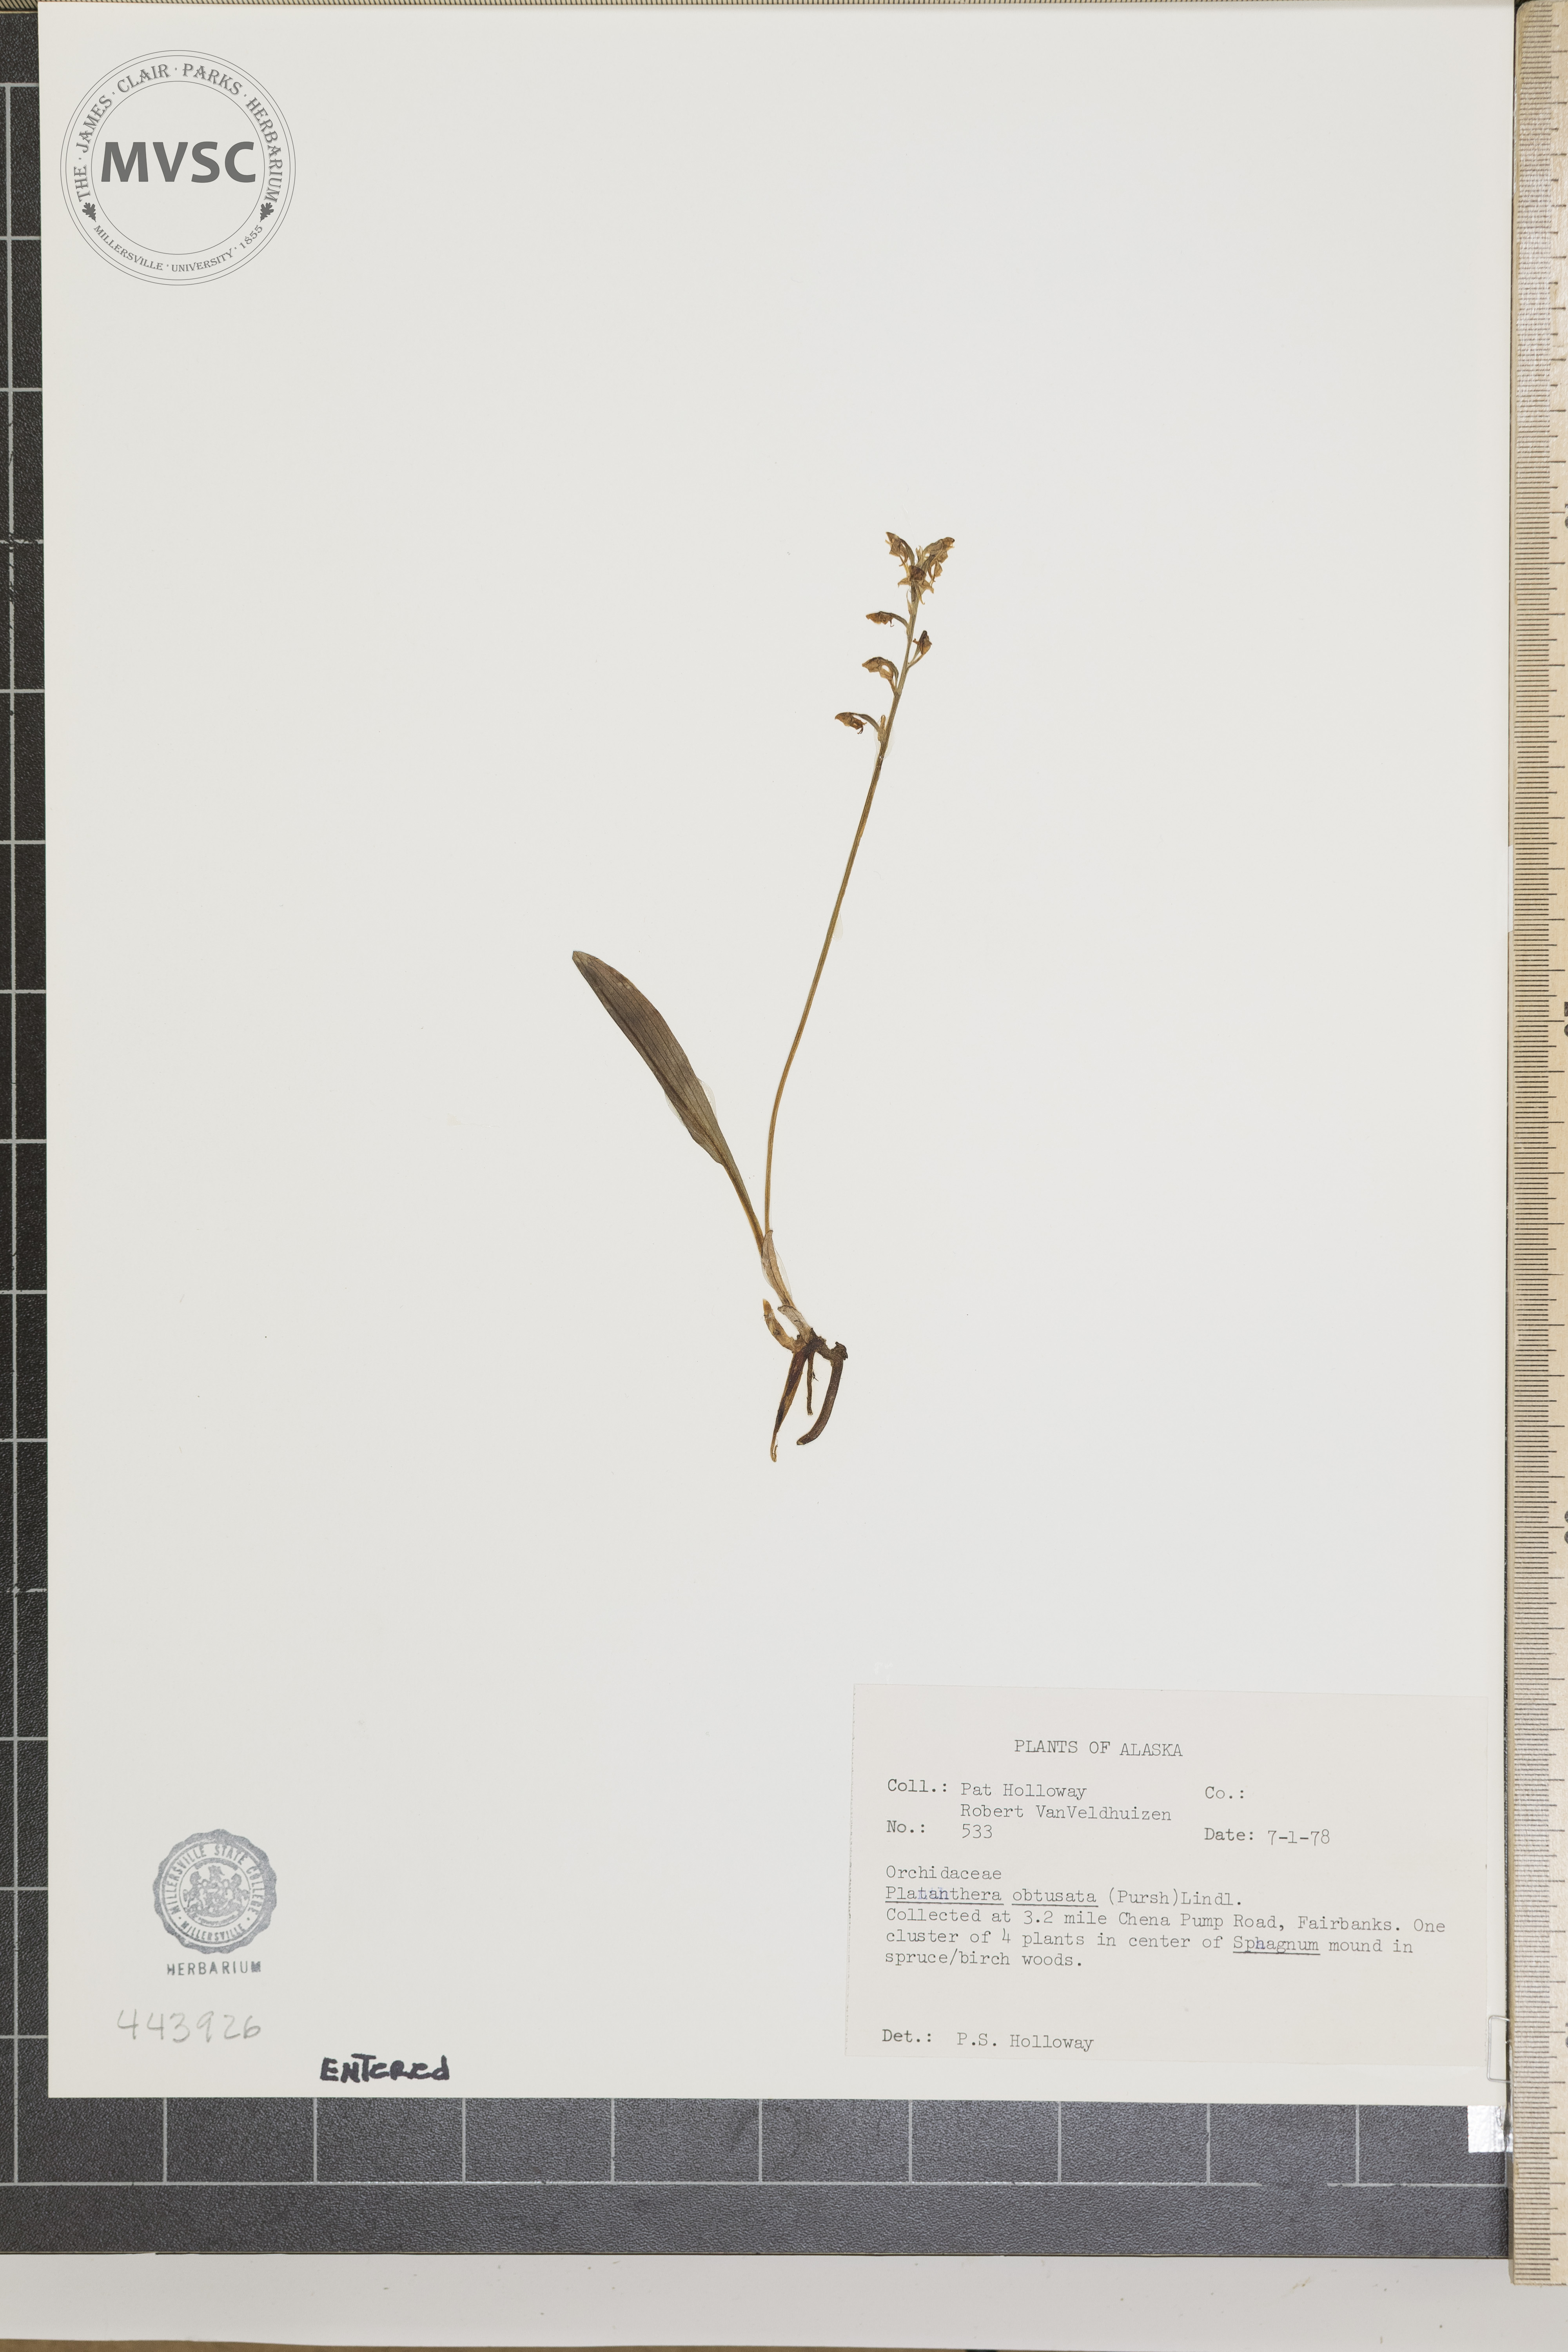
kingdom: Plantae
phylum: Tracheophyta
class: Liliopsida
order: Asparagales
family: Orchidaceae
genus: Platanthera
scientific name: Platanthera obtusata
